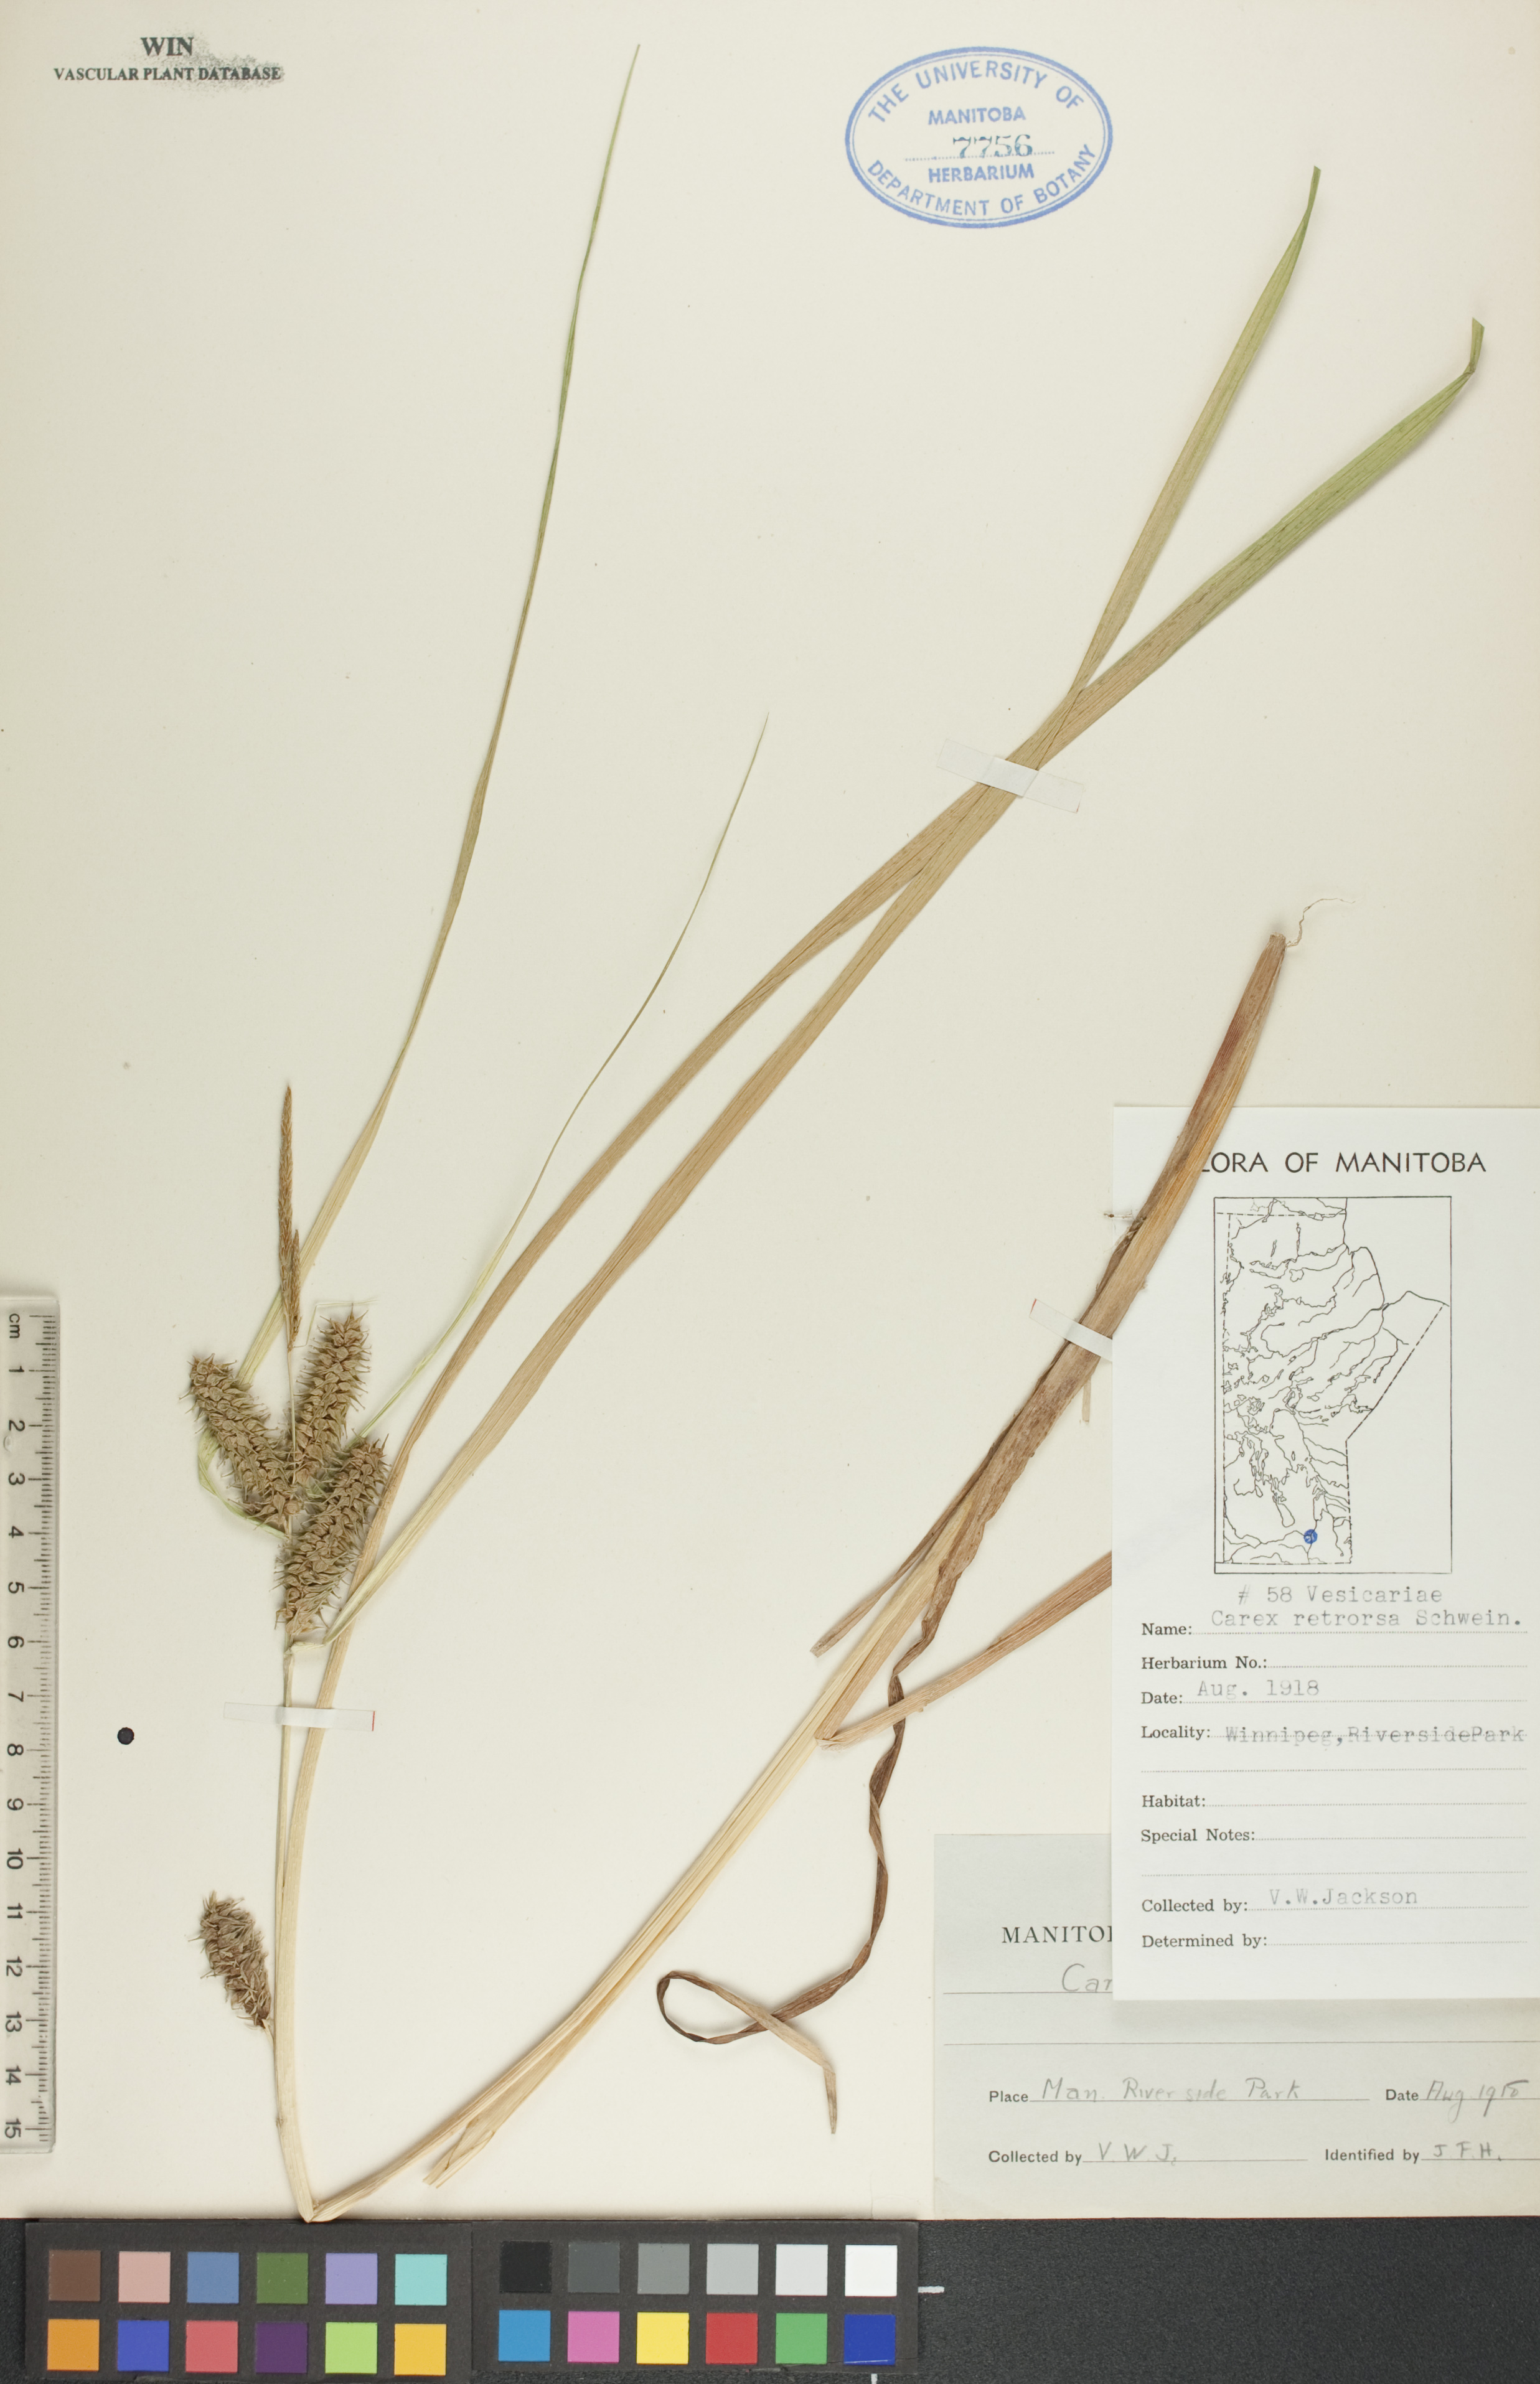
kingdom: Plantae
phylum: Tracheophyta
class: Liliopsida
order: Poales
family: Cyperaceae
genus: Carex
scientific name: Carex retrorsa
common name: Knot-sheath sedge
